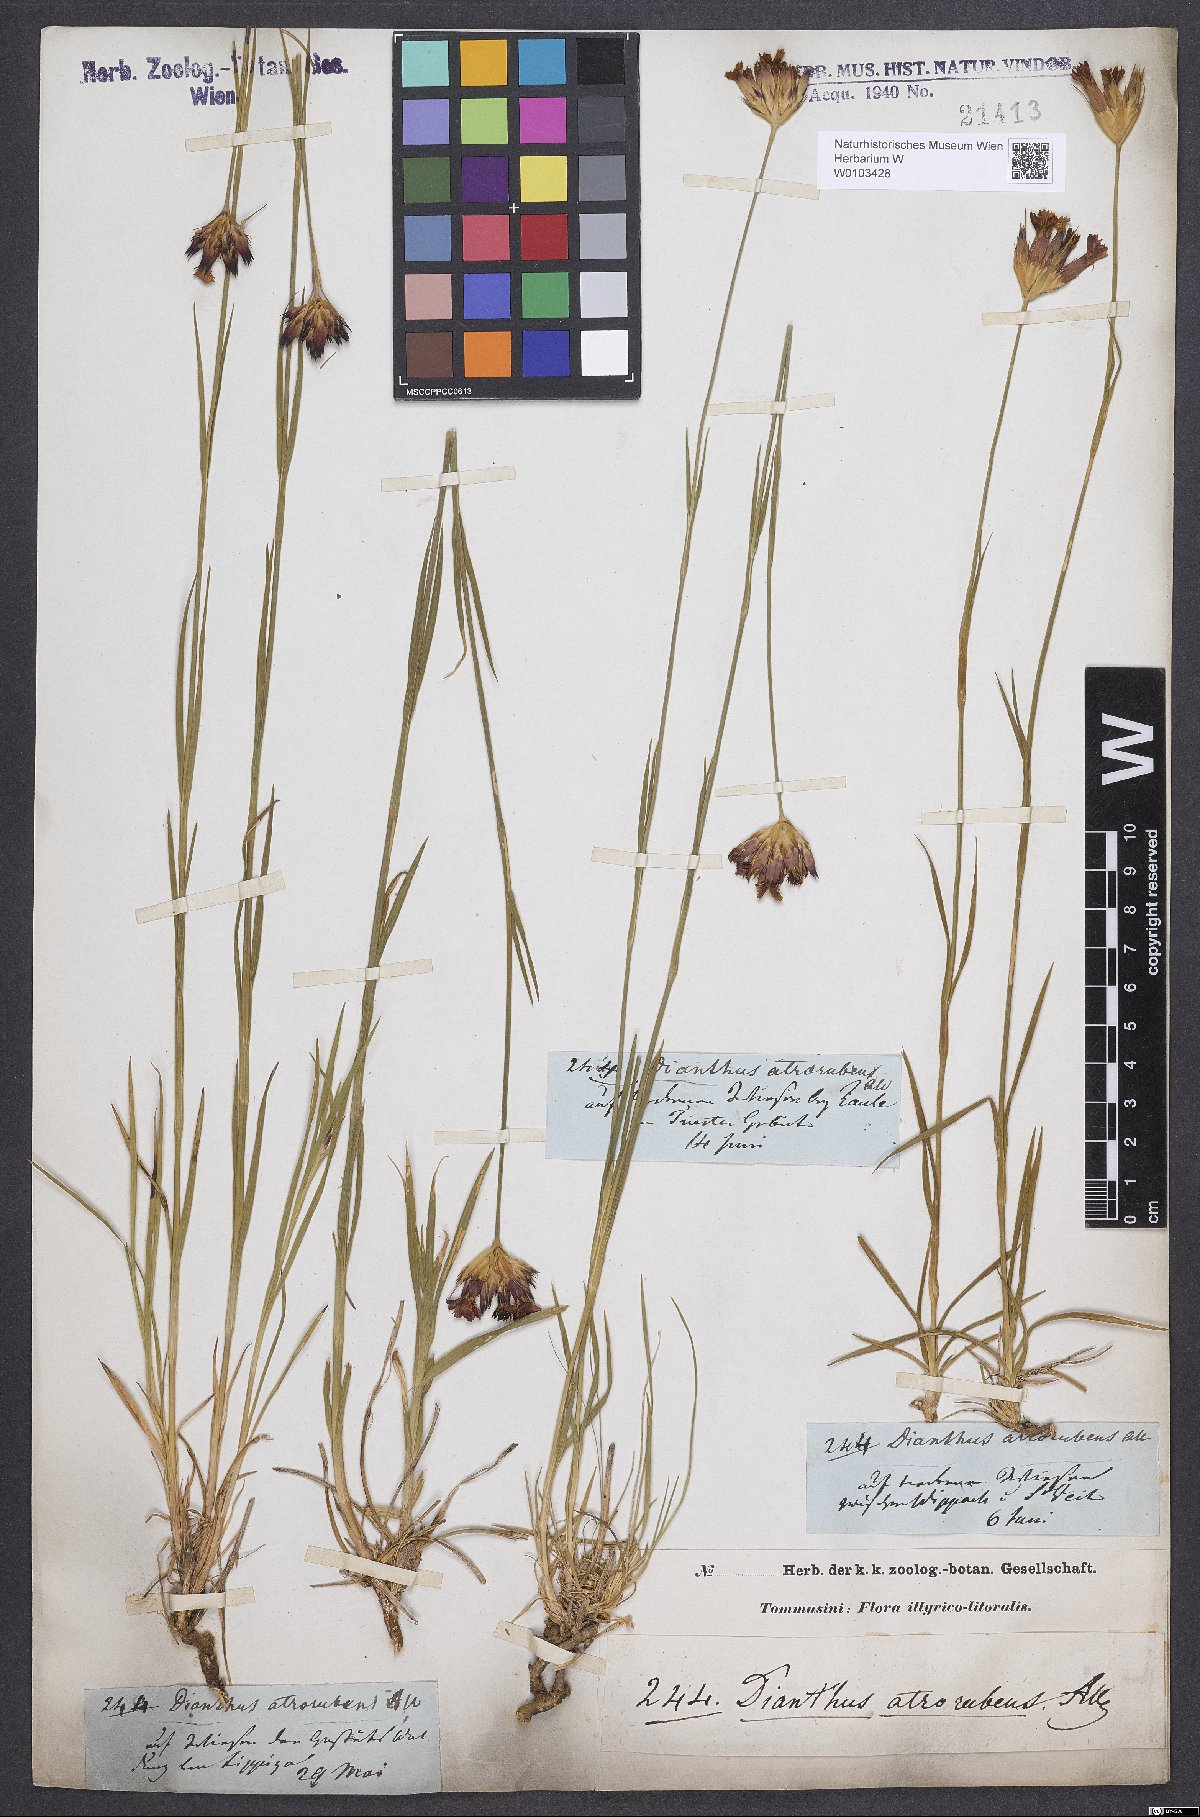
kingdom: Plantae
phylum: Tracheophyta
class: Magnoliopsida
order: Caryophyllales
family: Caryophyllaceae
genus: Dianthus
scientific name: Dianthus carthusianorum
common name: Carthusian pink
